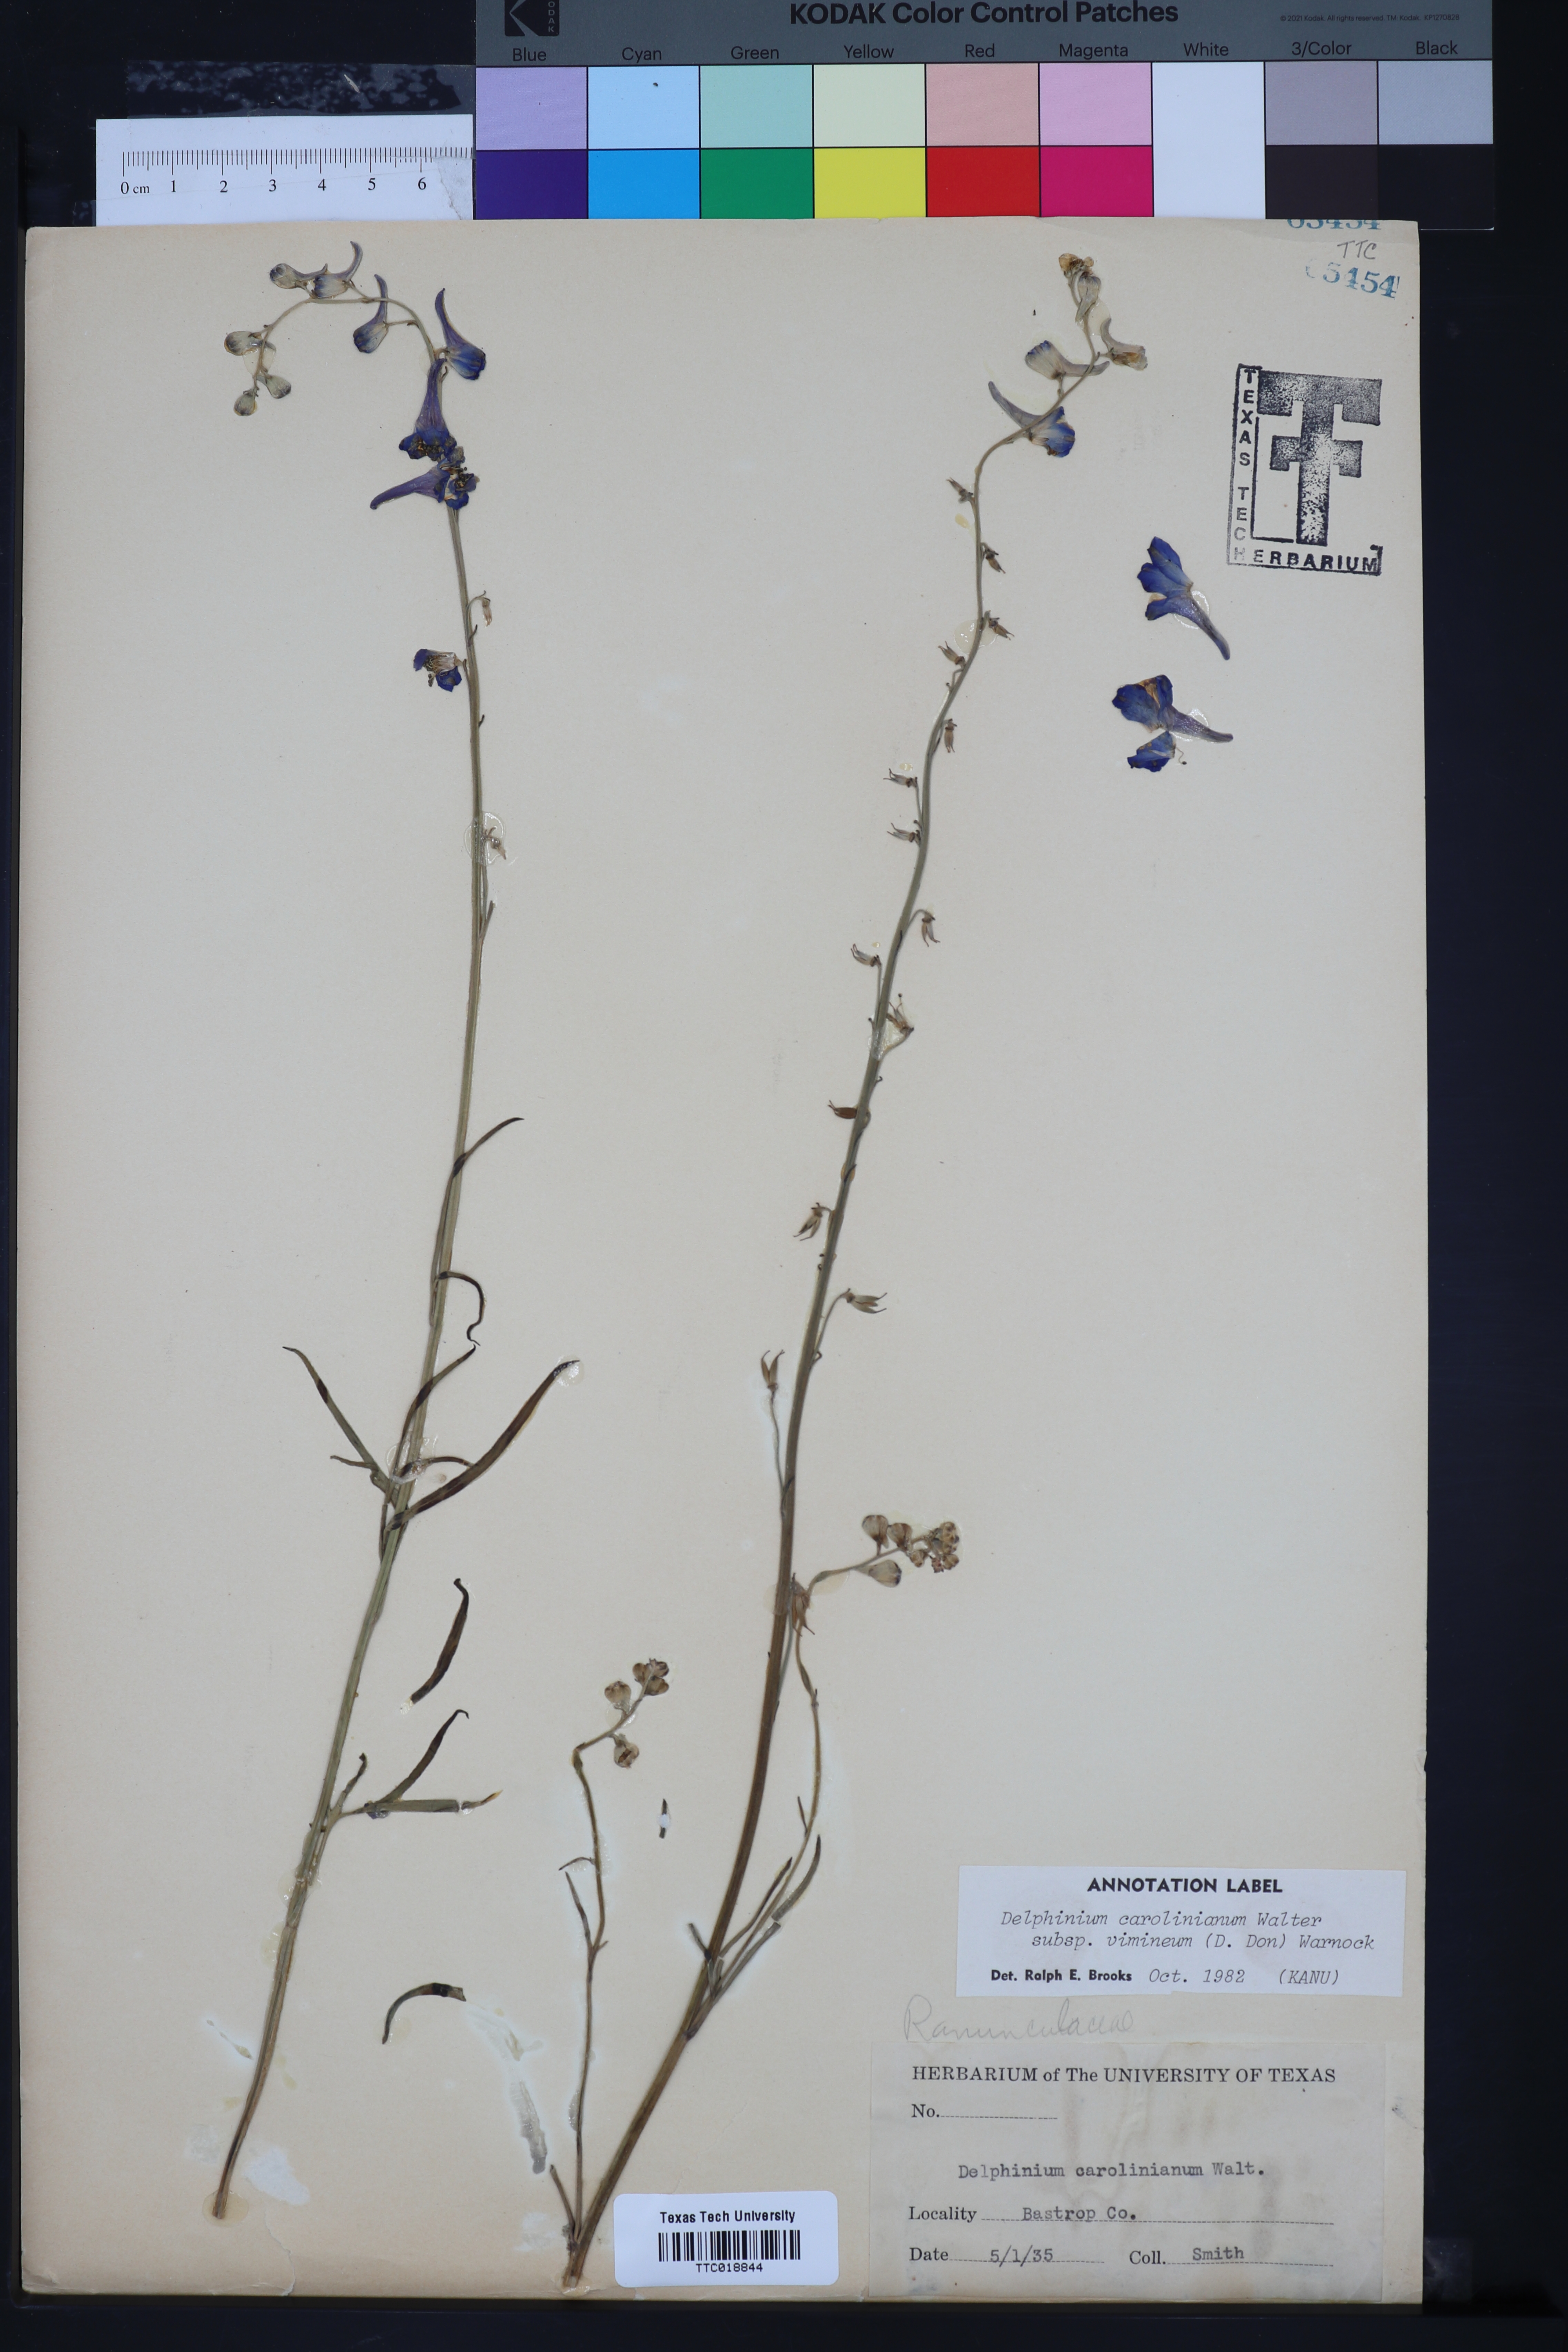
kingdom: Plantae
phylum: Tracheophyta
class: Magnoliopsida
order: Ranunculales
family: Ranunculaceae
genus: Delphinium
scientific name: Delphinium carolinianum
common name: Carolina larkspur
